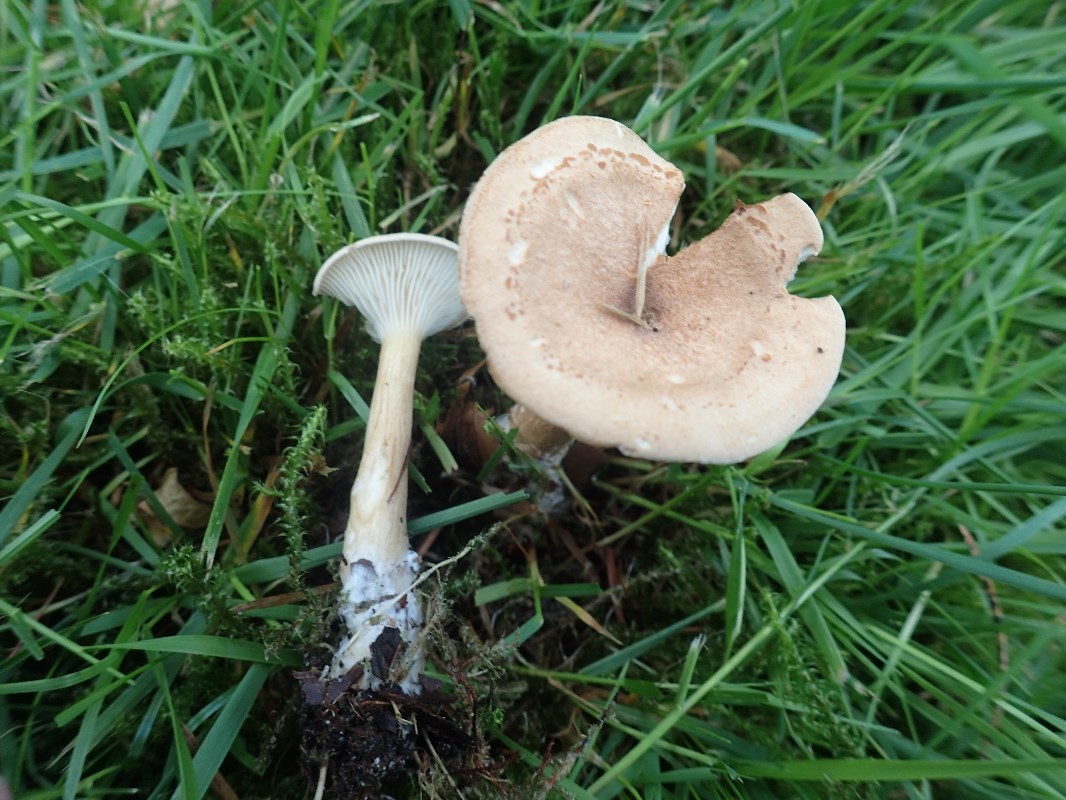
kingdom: Fungi
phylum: Basidiomycota
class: Agaricomycetes
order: Agaricales
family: Tricholomataceae
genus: Infundibulicybe
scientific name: Infundibulicybe squamulosa
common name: småskællet tragthat
